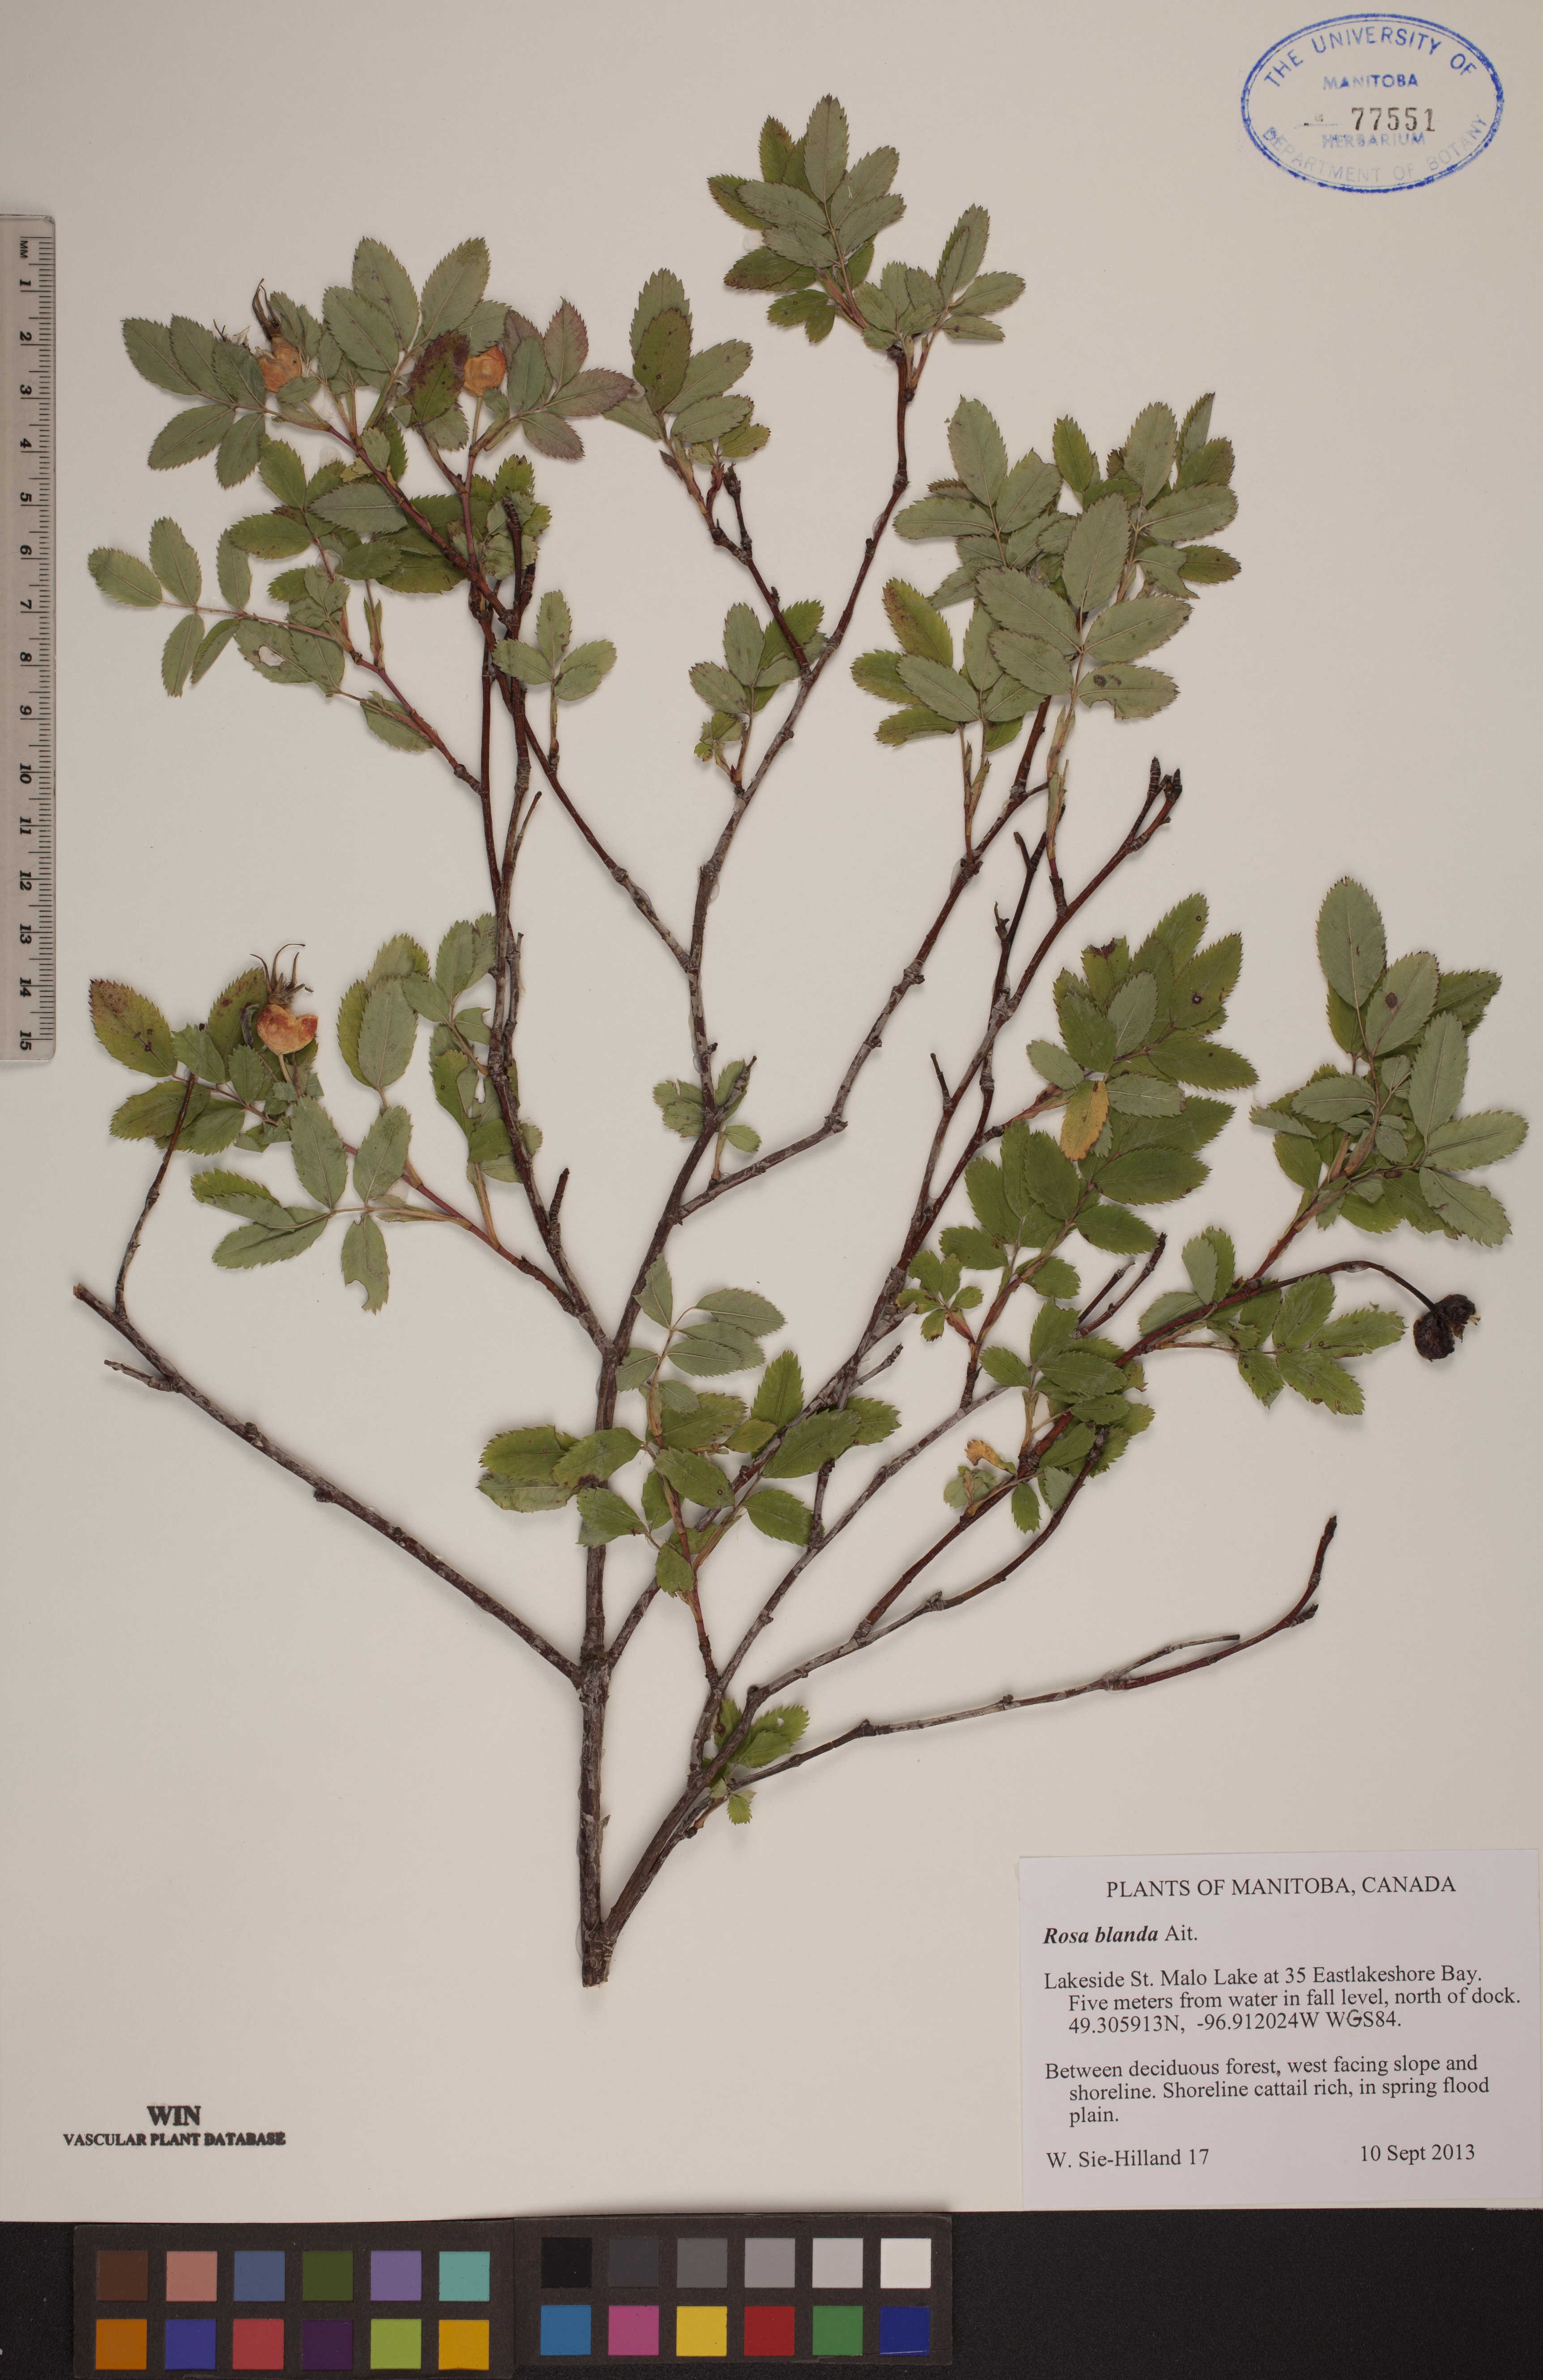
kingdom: Plantae
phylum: Tracheophyta
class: Magnoliopsida
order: Rosales
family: Rosaceae
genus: Rosa
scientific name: Rosa blanda
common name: Smooth rose
